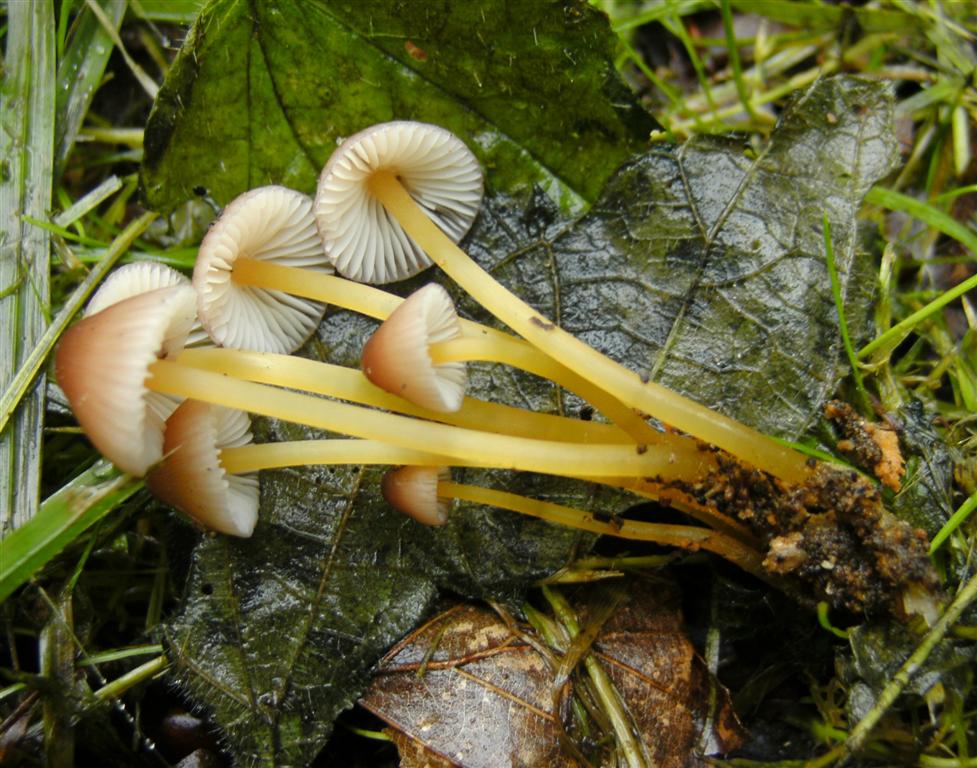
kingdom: Fungi
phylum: Basidiomycota
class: Agaricomycetes
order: Agaricales
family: Mycenaceae
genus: Mycena
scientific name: Mycena renati
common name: smuk huesvamp
